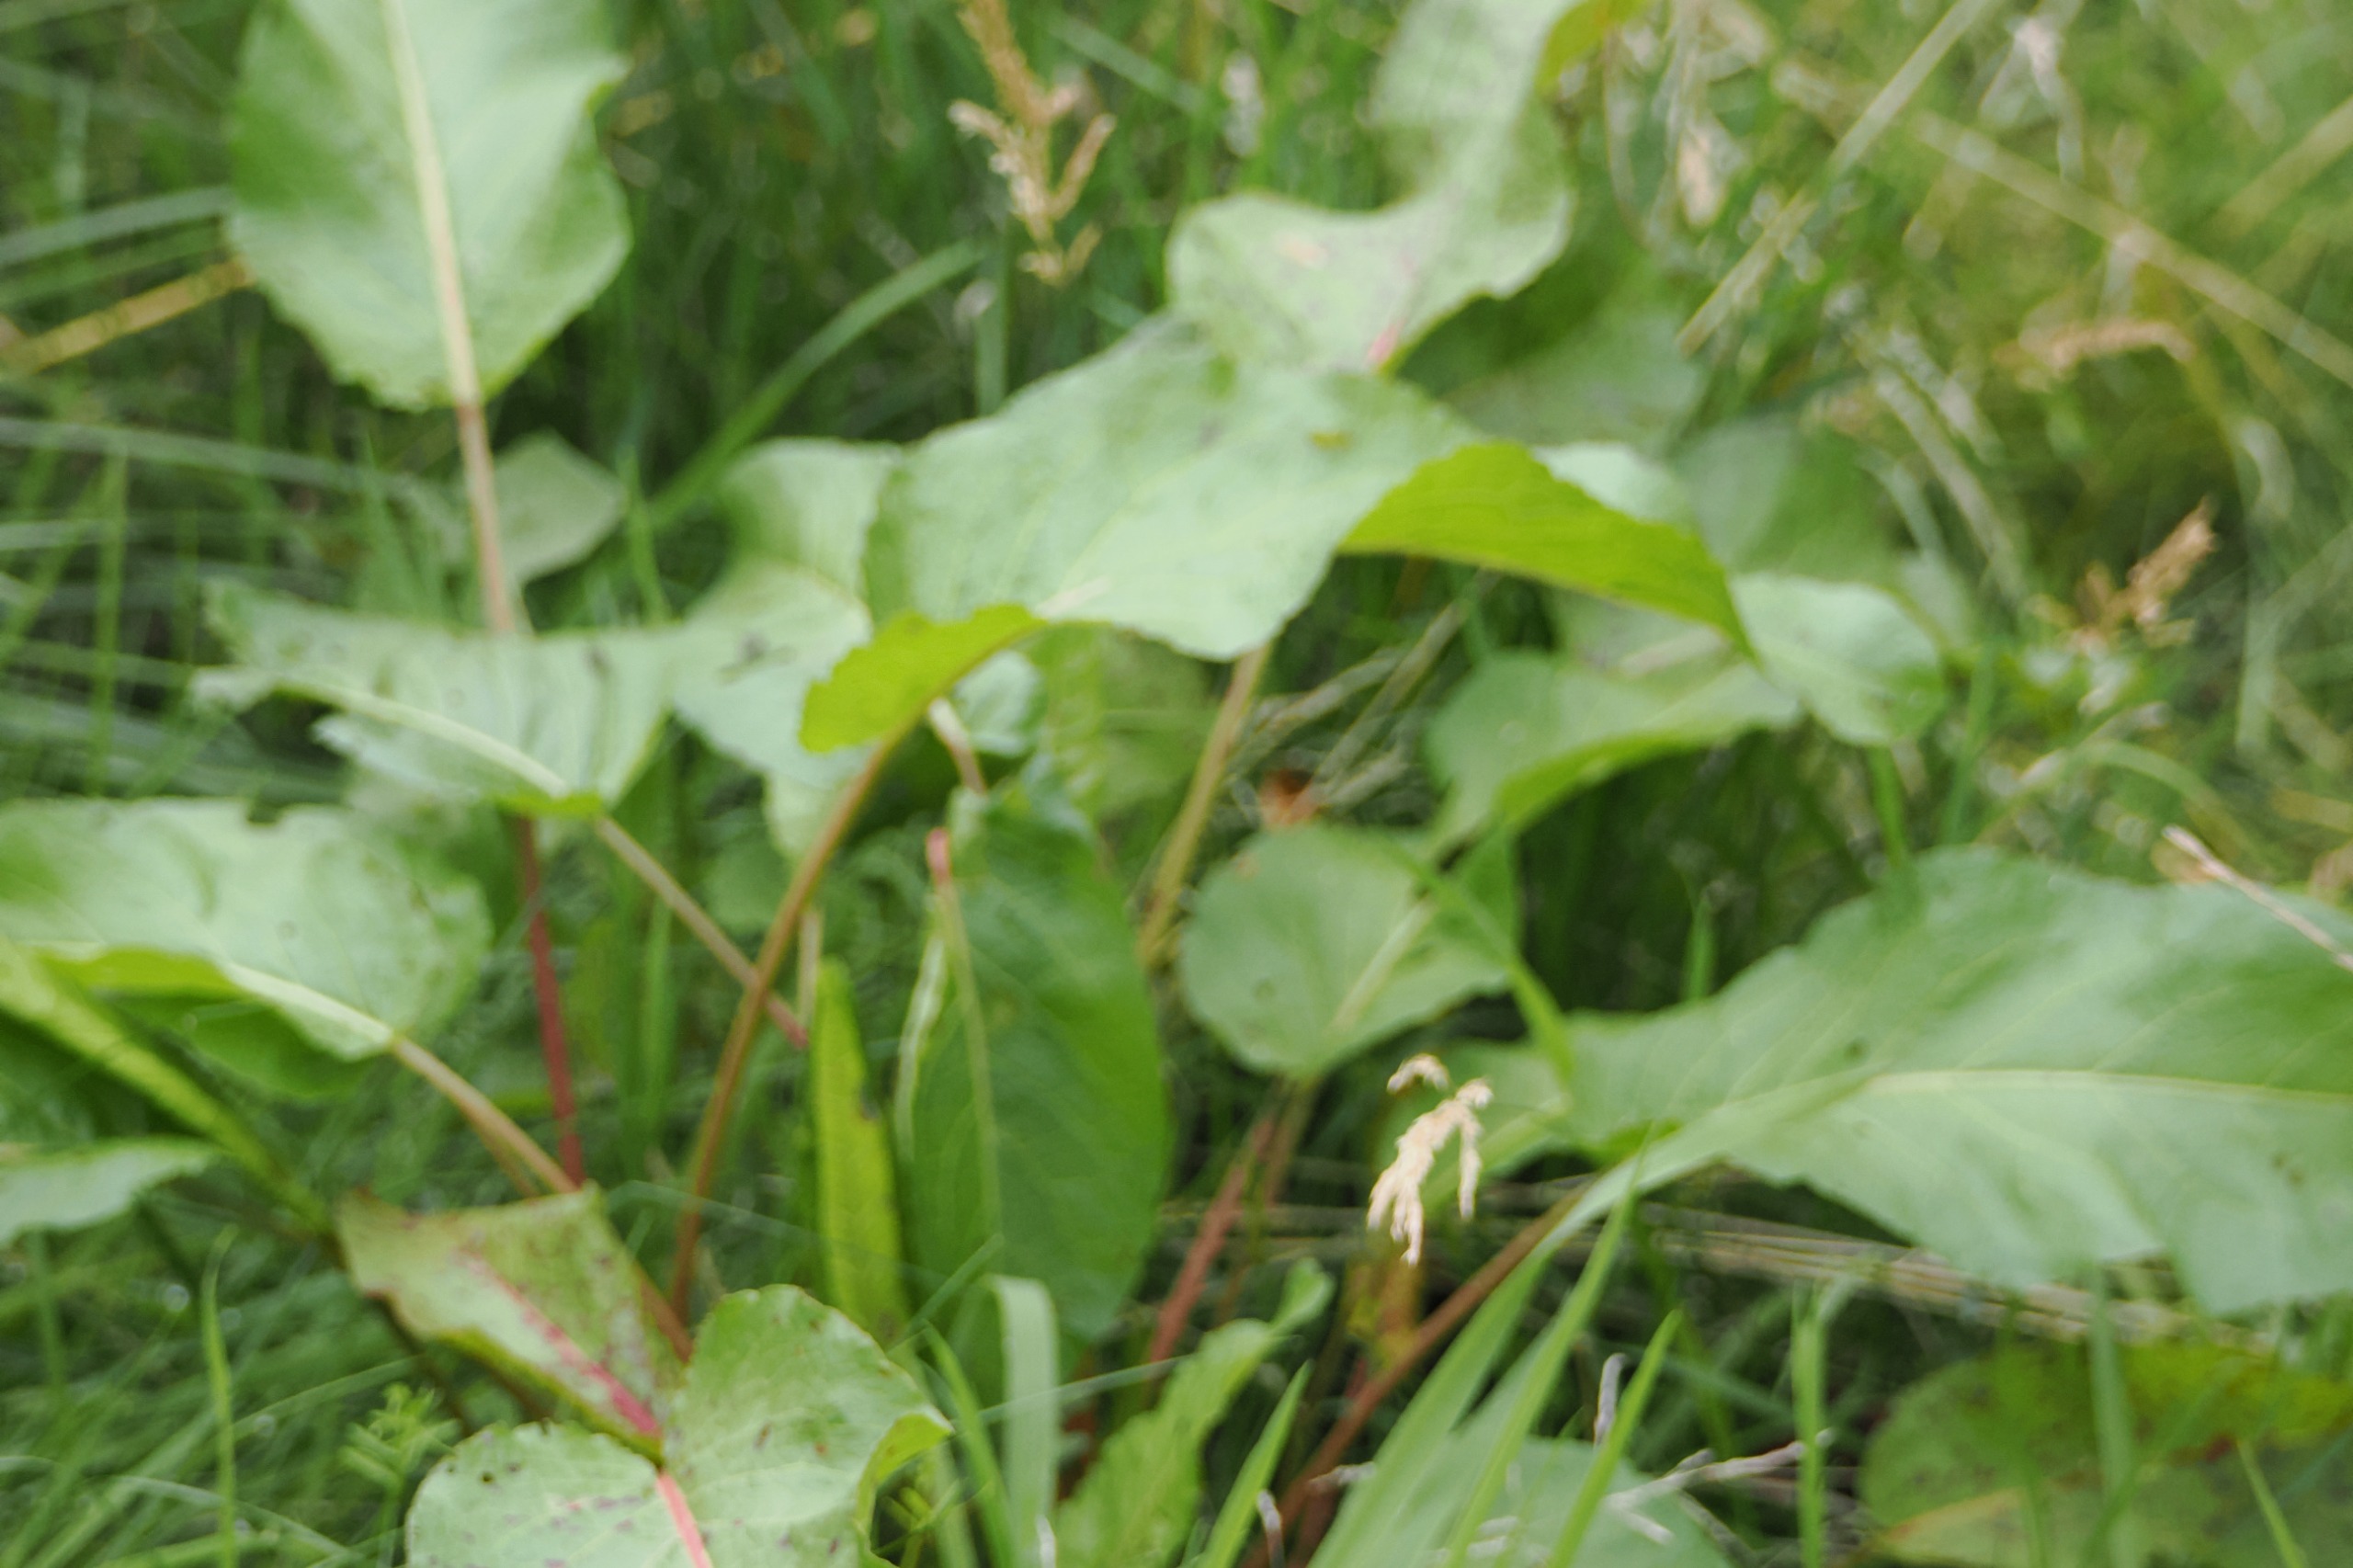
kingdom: Plantae
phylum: Tracheophyta
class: Magnoliopsida
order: Caryophyllales
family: Polygonaceae
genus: Rumex
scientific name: Rumex obtusifolius
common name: Butbladet skræppe
